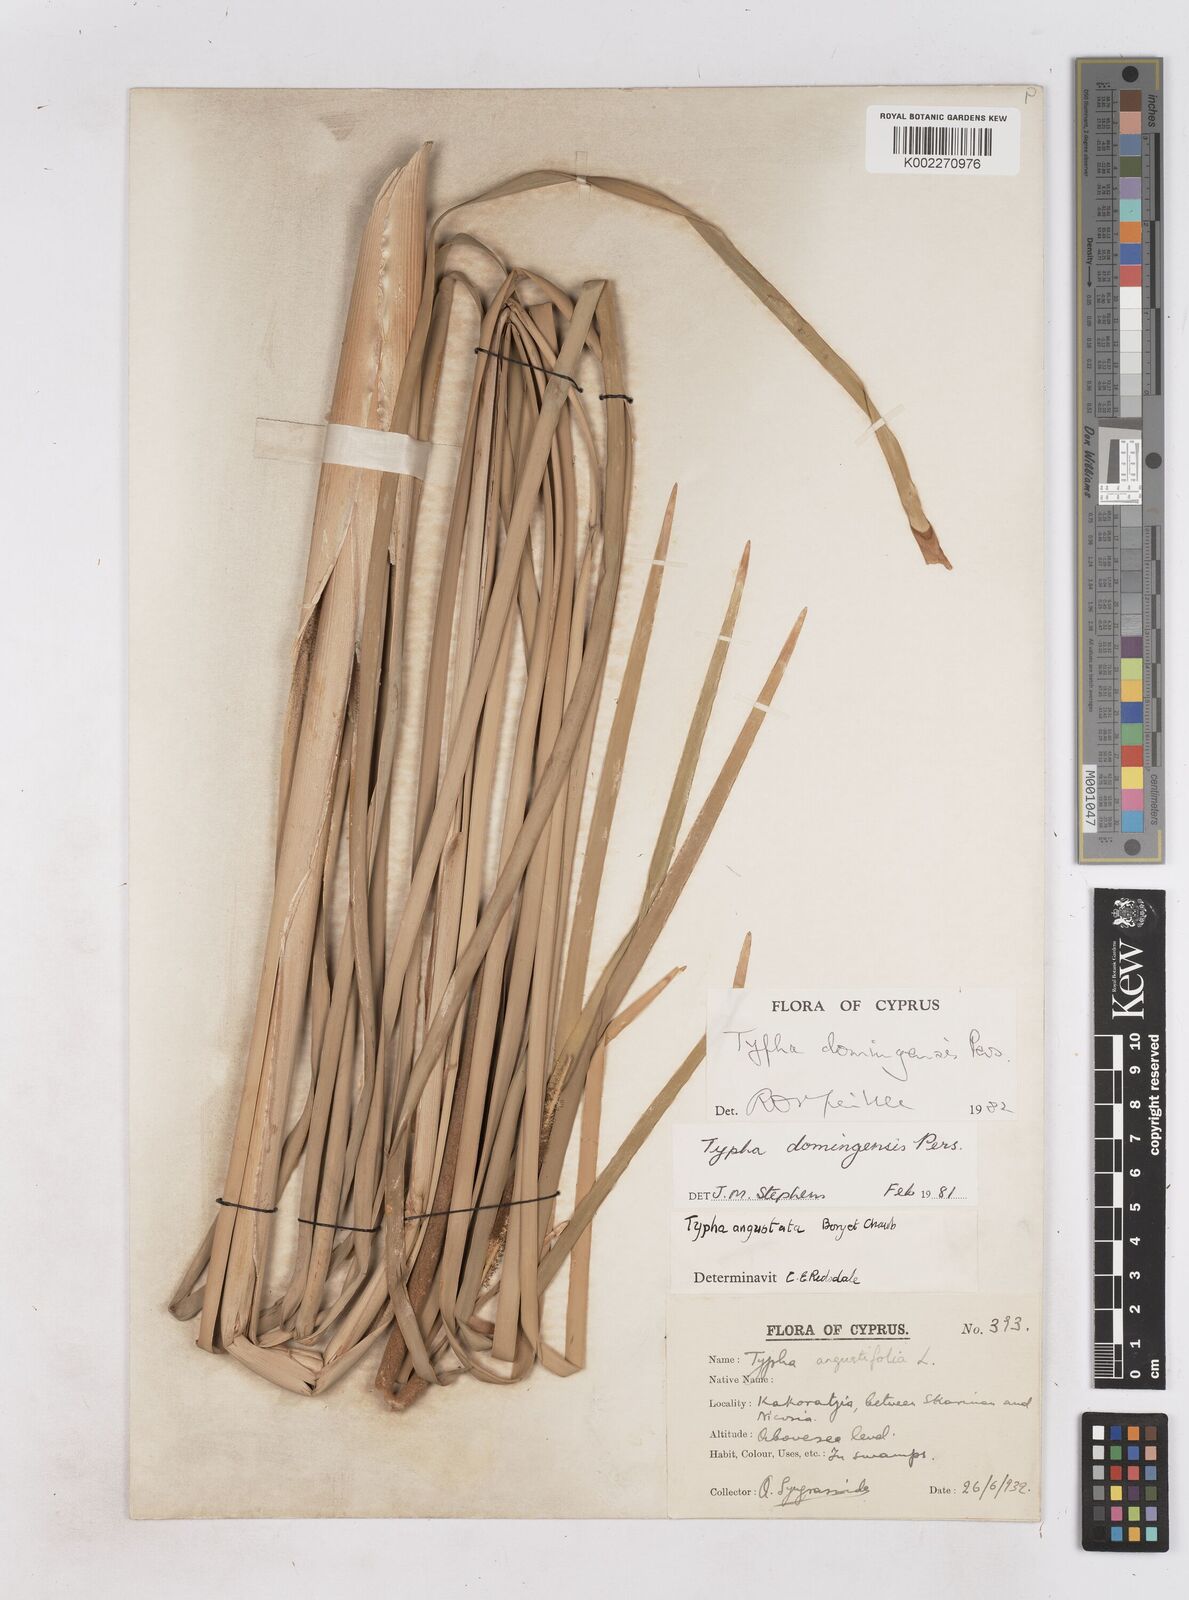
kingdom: Plantae
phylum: Tracheophyta
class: Liliopsida
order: Poales
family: Typhaceae
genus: Typha
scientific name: Typha domingensis
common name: Southern cattail
